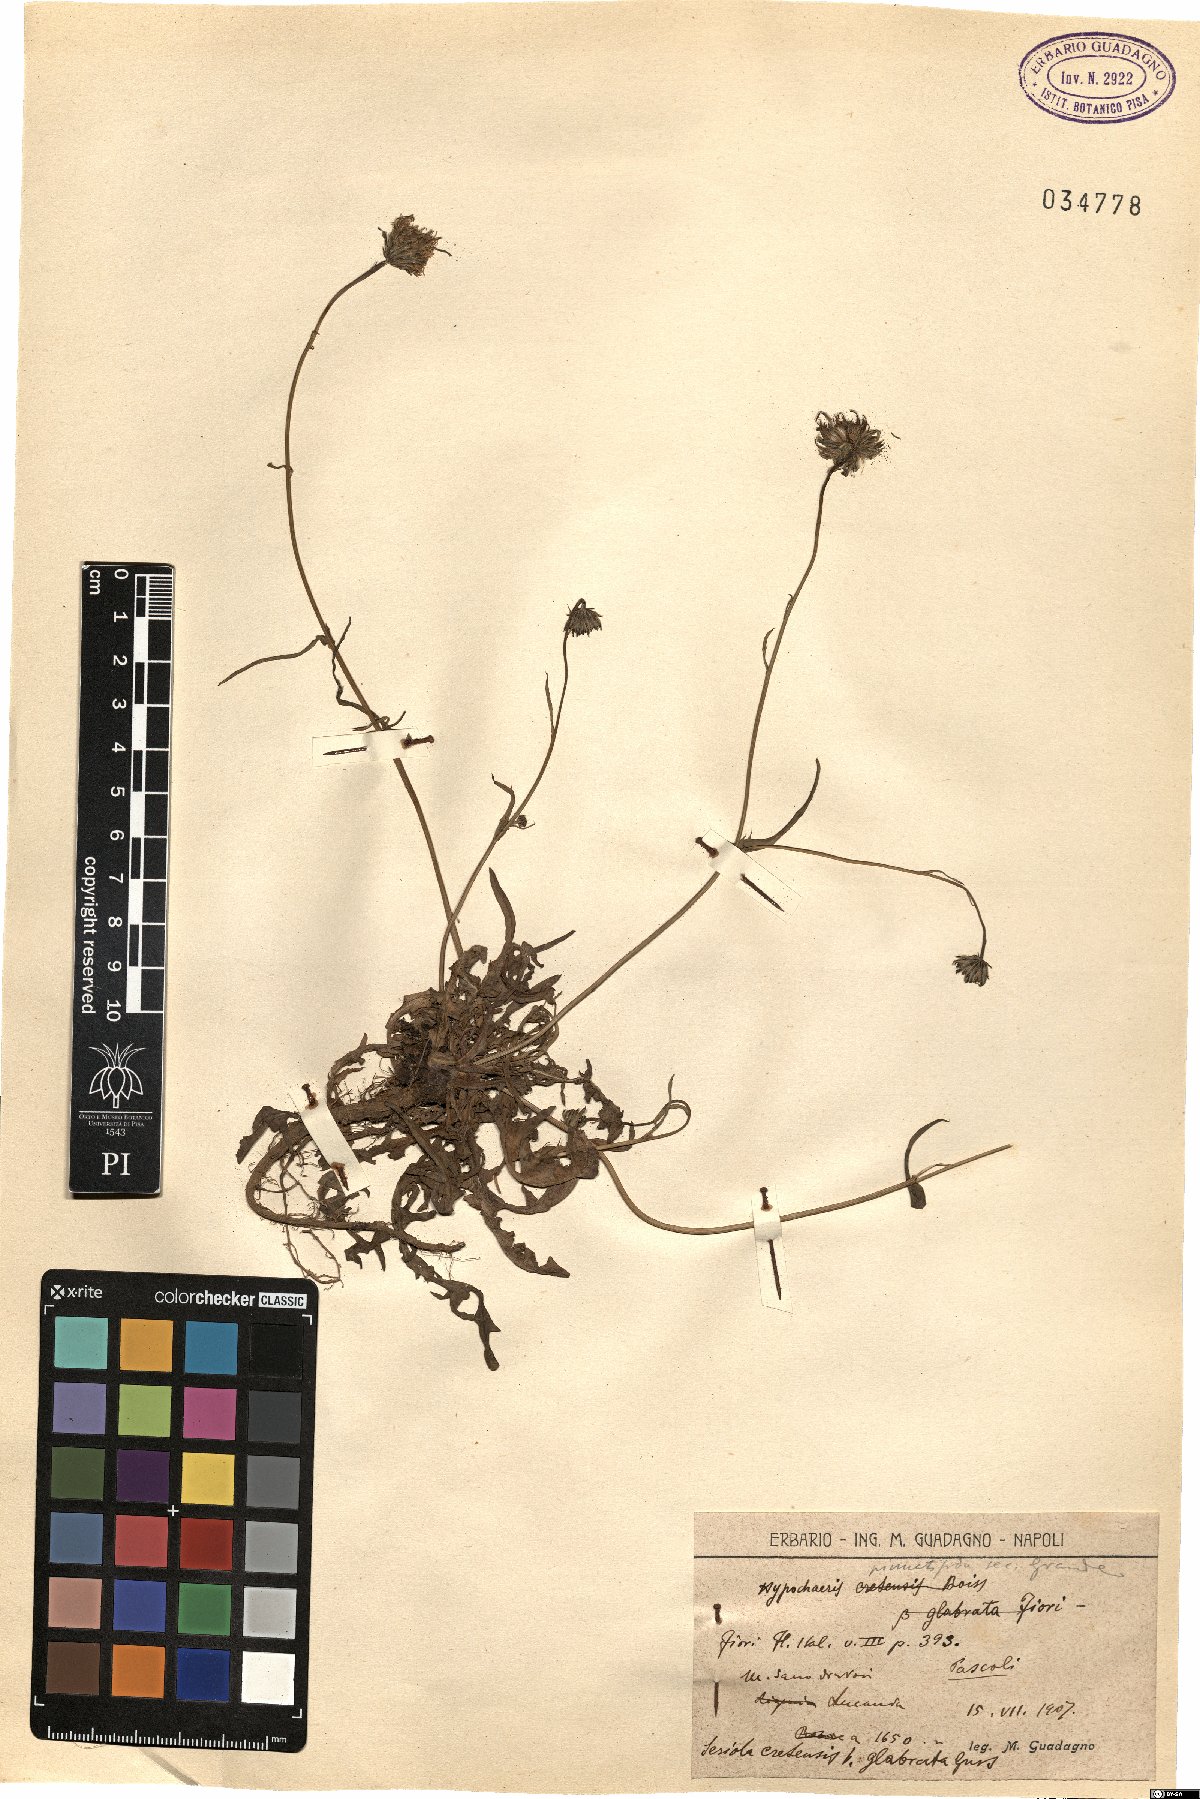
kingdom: Plantae
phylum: Tracheophyta
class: Magnoliopsida
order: Asterales
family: Asteraceae
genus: Hypochaeris
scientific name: Hypochaeris cretensis
